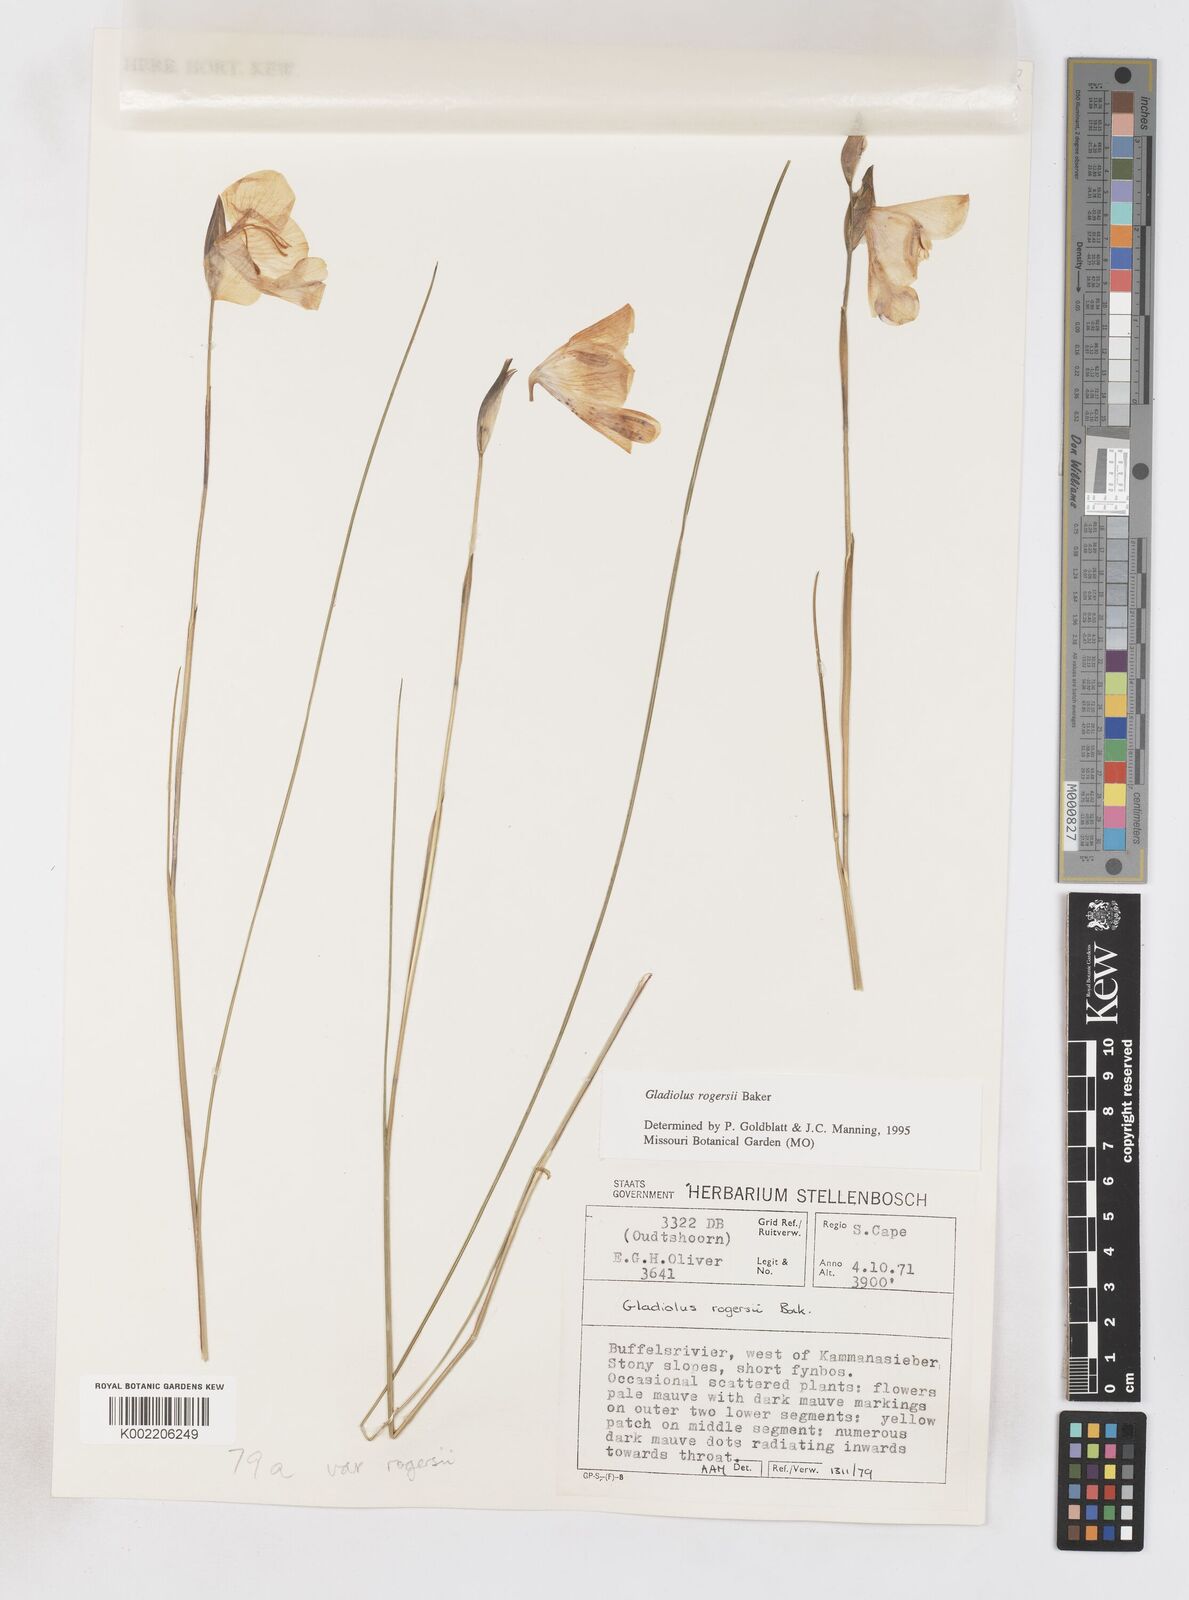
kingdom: Plantae
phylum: Tracheophyta
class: Liliopsida
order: Asparagales
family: Iridaceae
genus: Gladiolus
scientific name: Gladiolus rogersii
